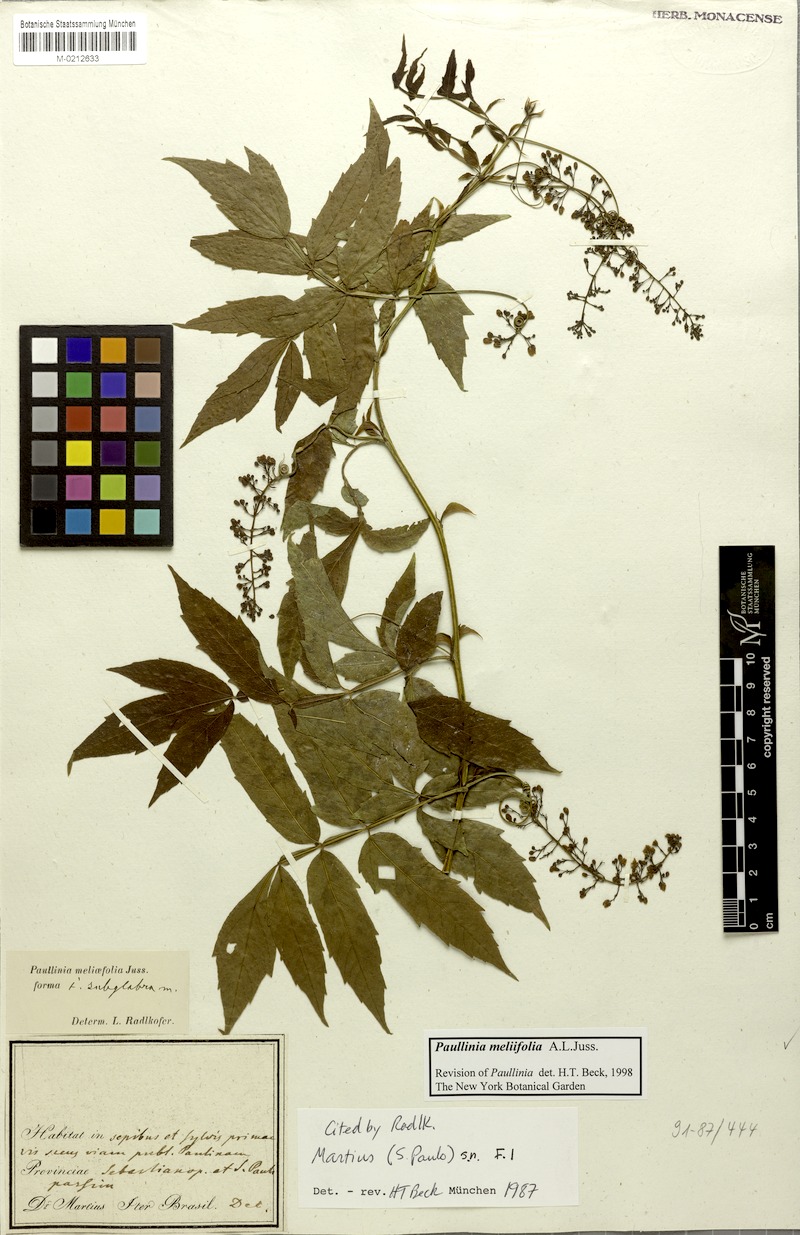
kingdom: Plantae
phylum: Tracheophyta
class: Magnoliopsida
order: Sapindales
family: Sapindaceae
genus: Paullinia
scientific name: Paullinia meliifolia
